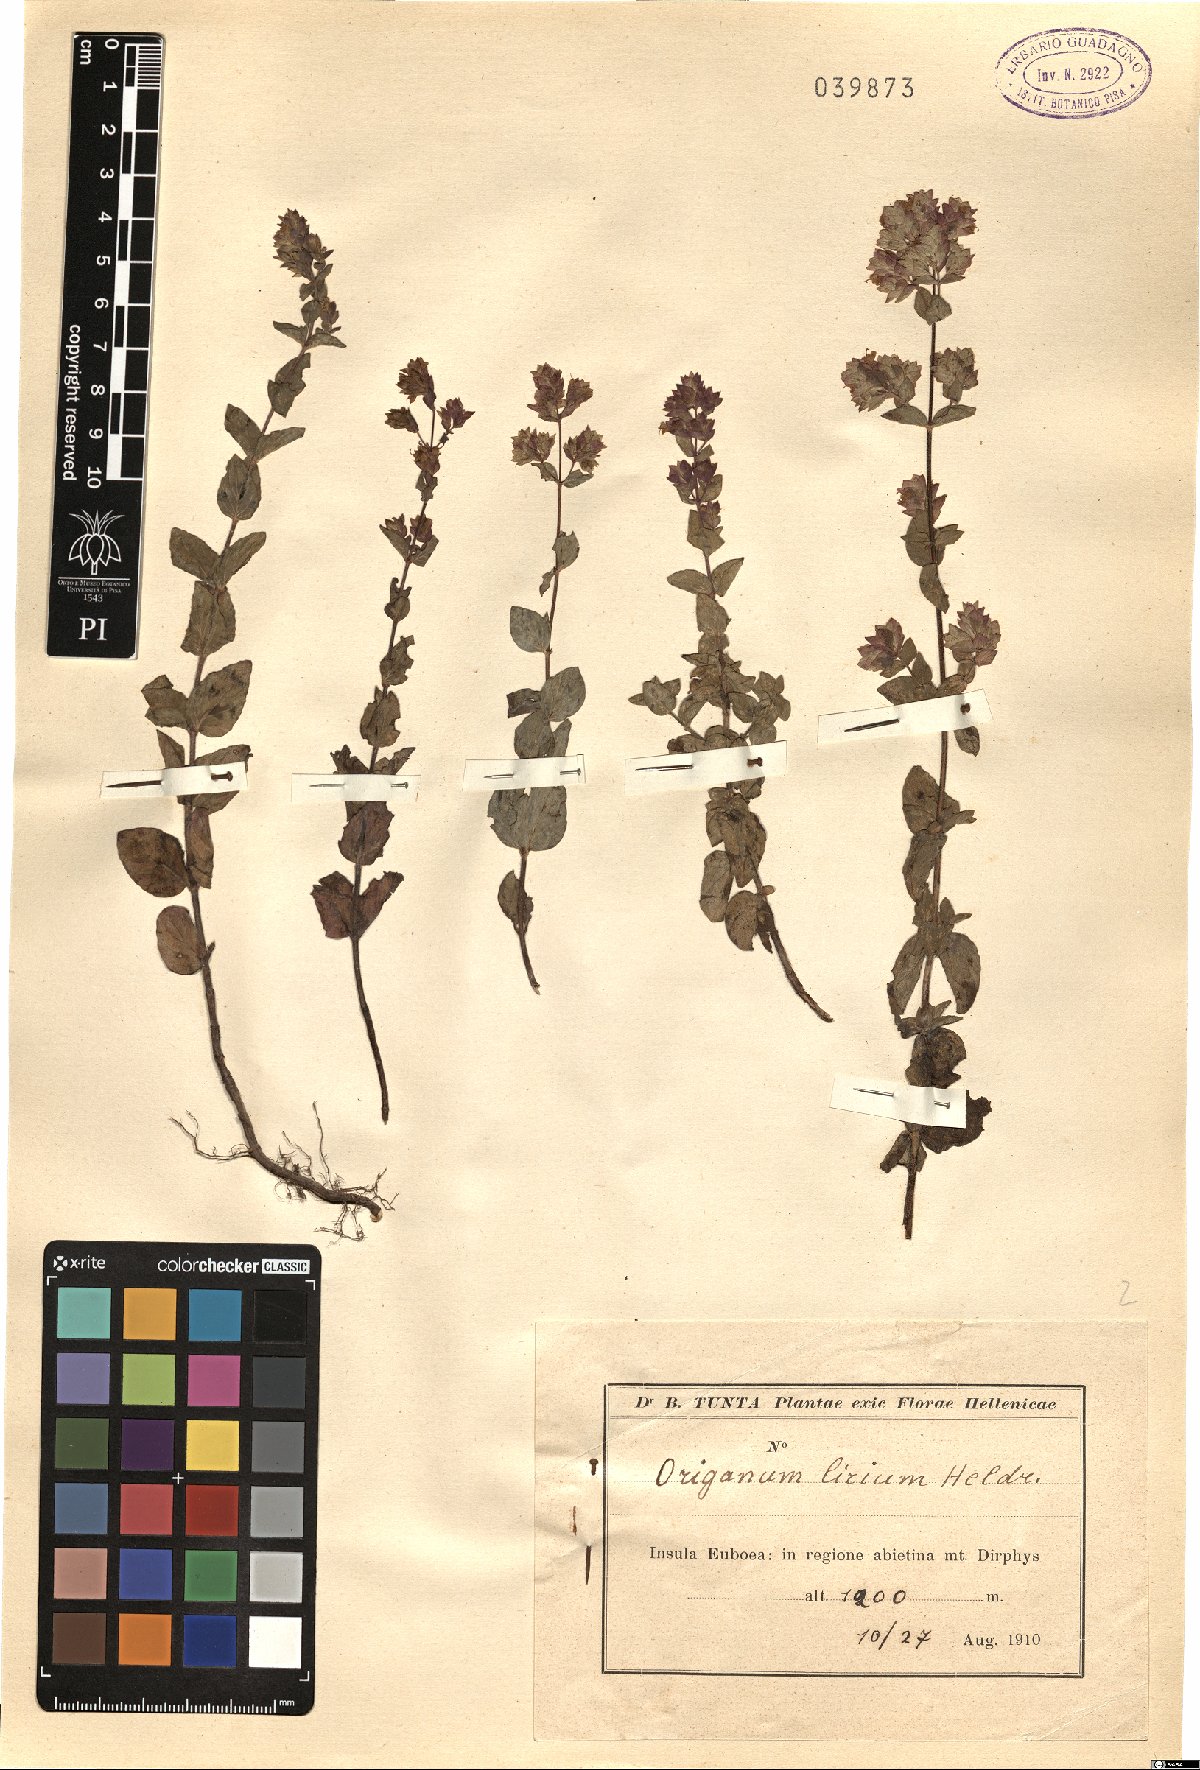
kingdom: Plantae
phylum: Tracheophyta
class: Magnoliopsida
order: Lamiales
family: Lamiaceae
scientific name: Lamiaceae
